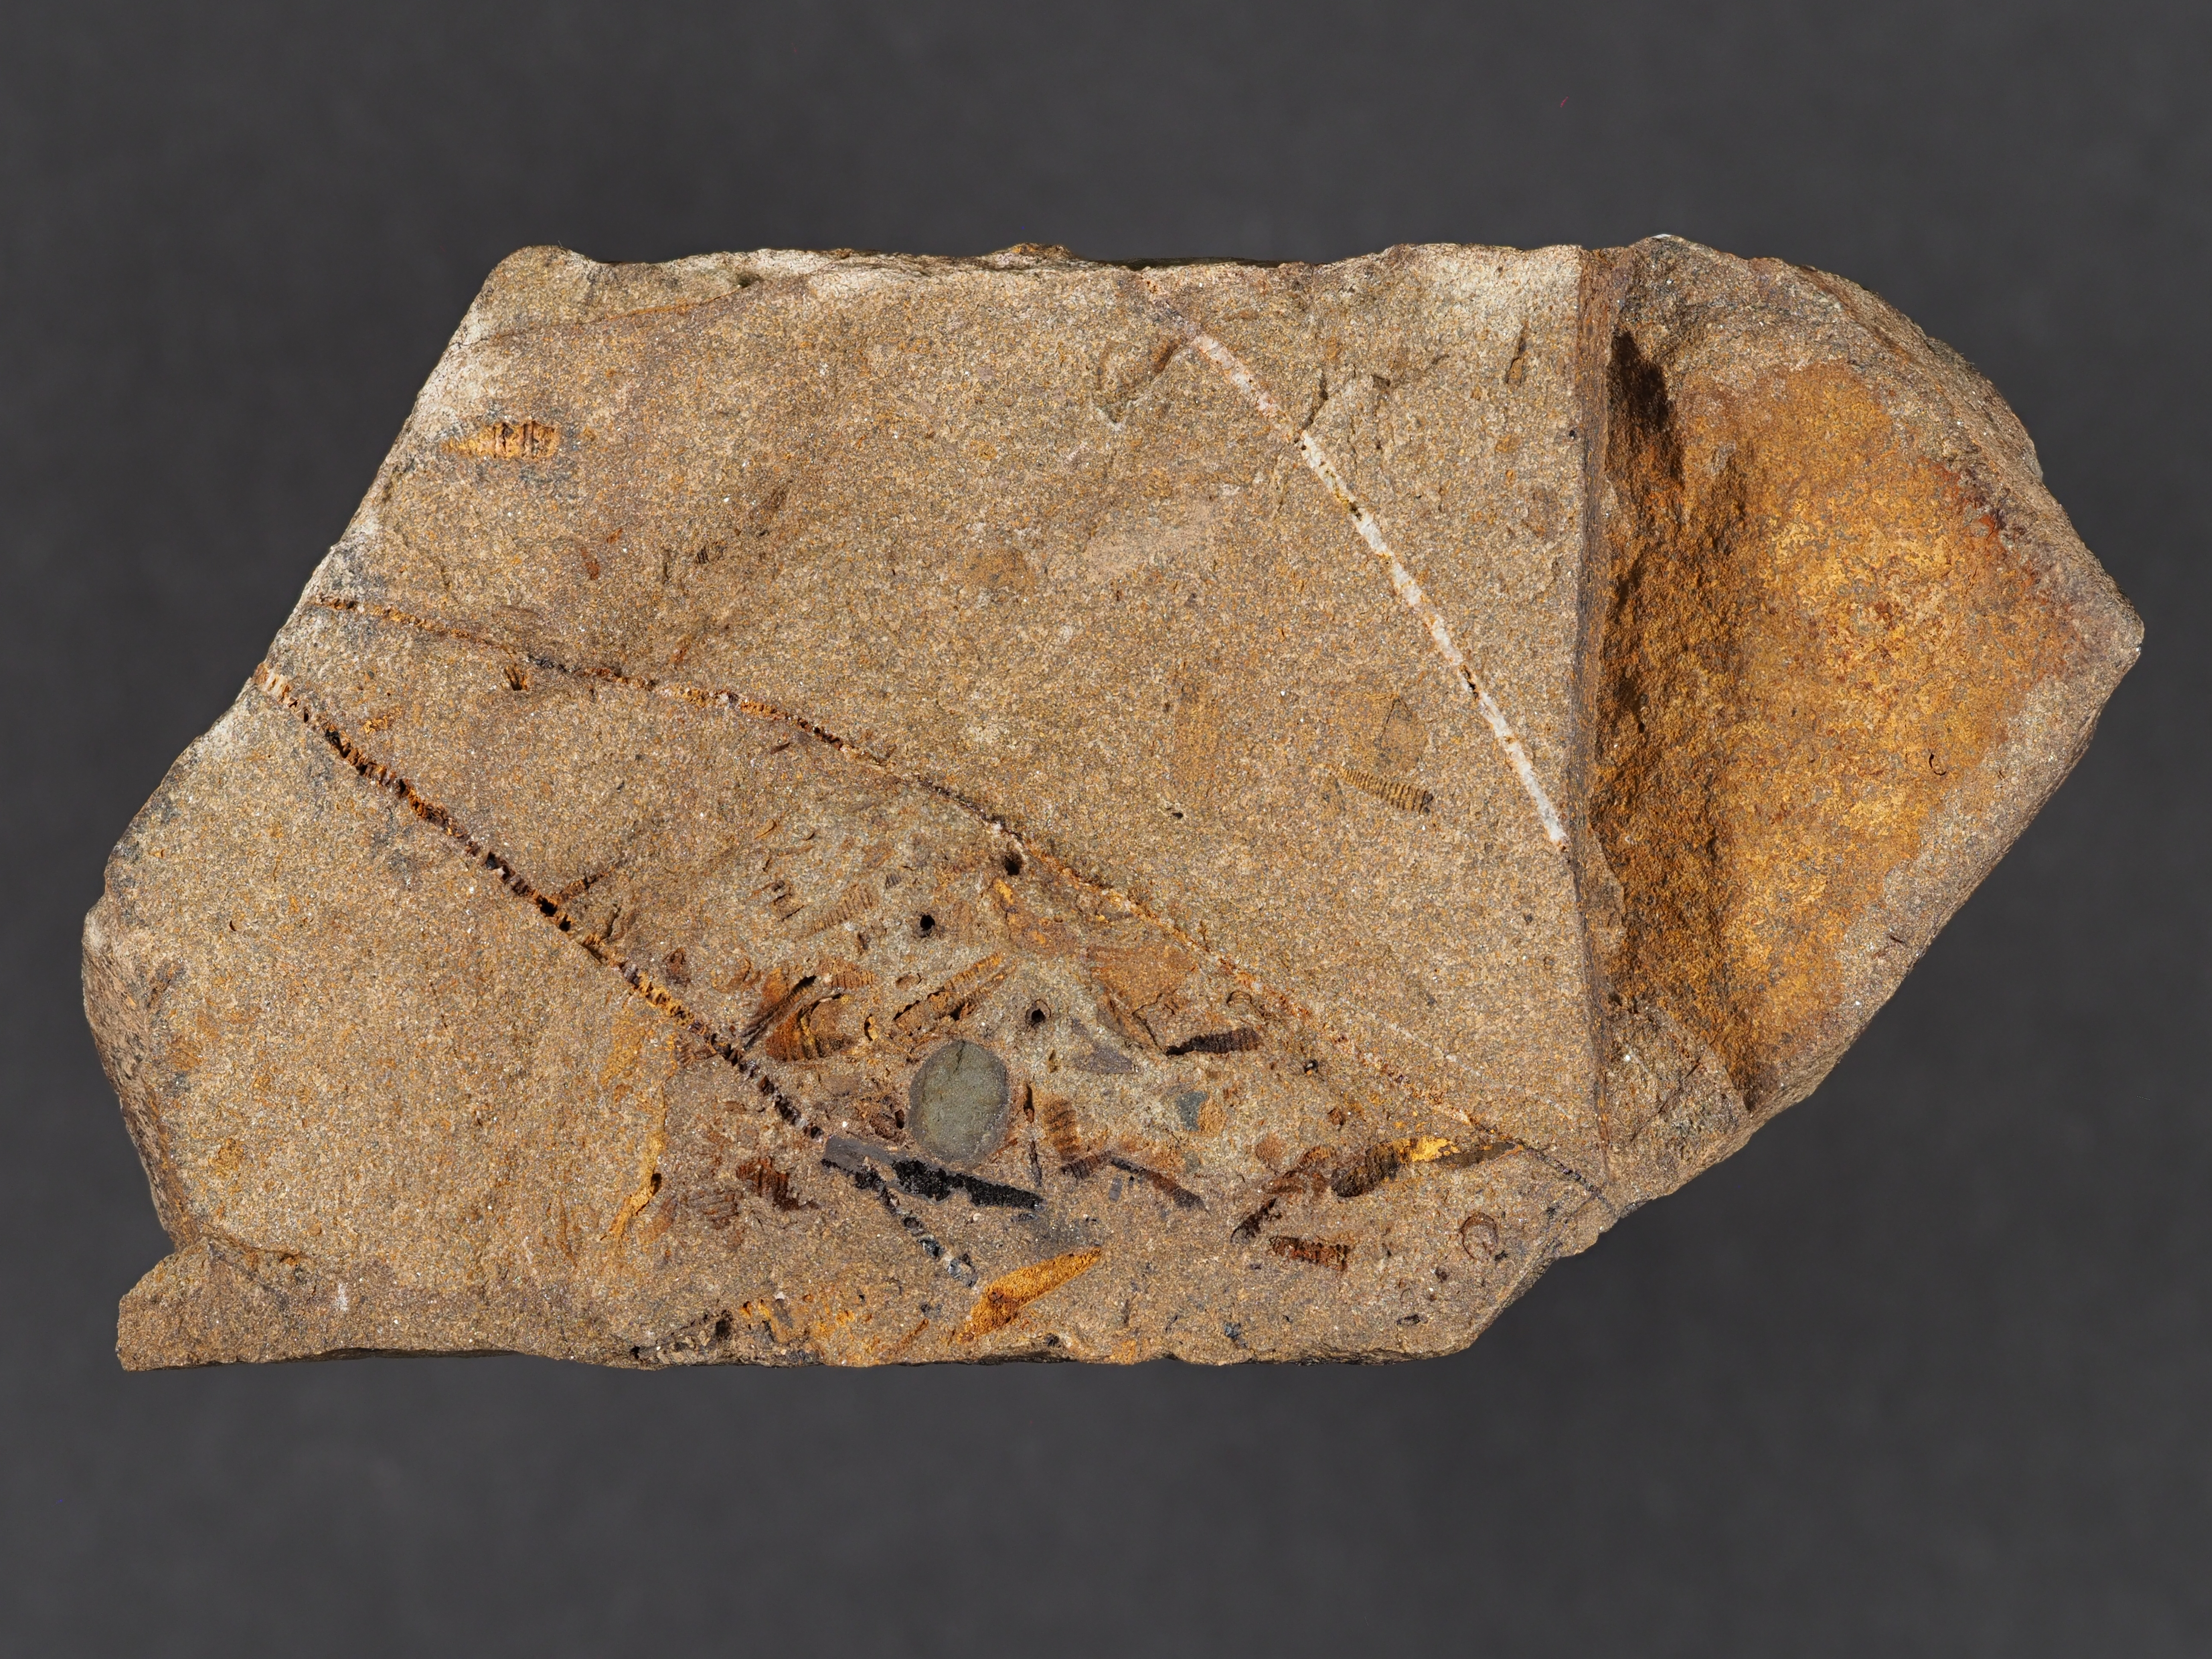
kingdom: Animalia
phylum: Mollusca
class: Cricoconarida
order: Tentaculitida
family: Tentaculitidae
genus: Tentaculites
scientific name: Tentaculites
